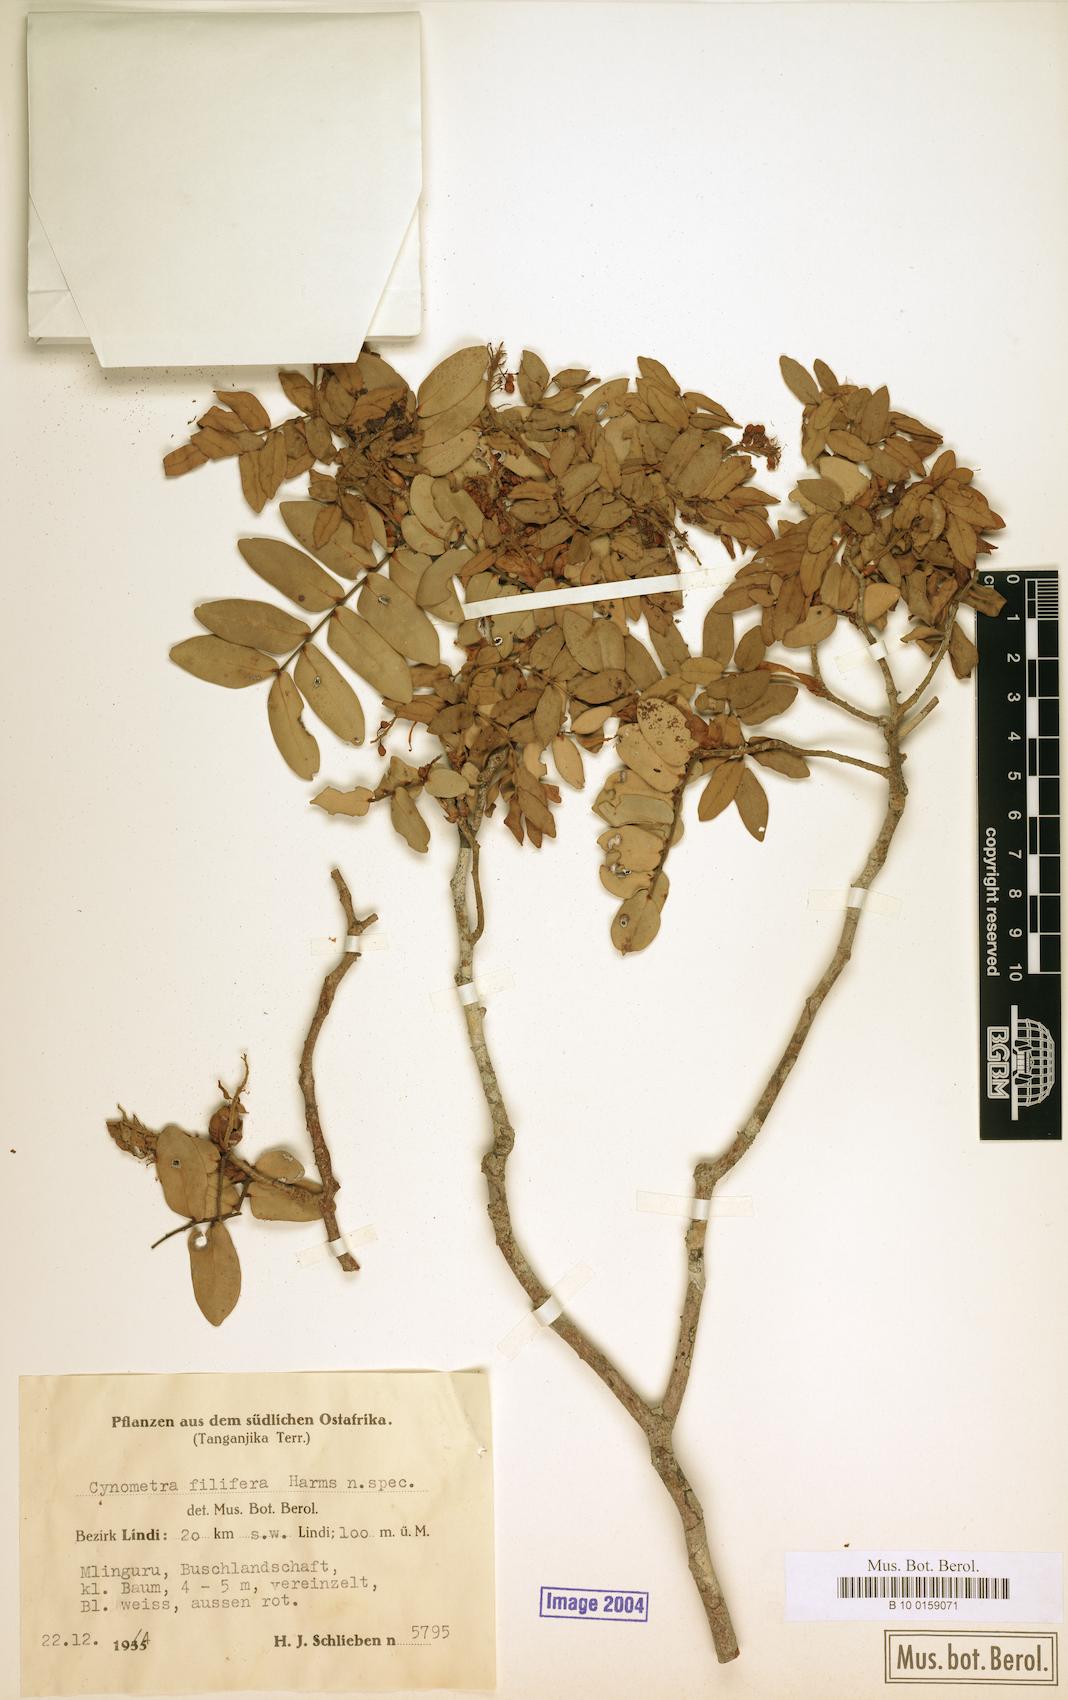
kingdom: Plantae
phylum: Tracheophyta
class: Magnoliopsida
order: Fabales
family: Fabaceae
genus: Cynometra
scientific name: Cynometra filifera
